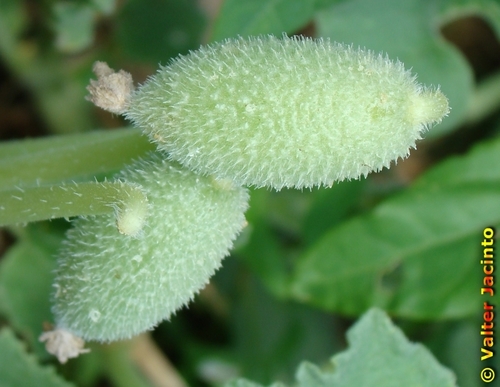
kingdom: Plantae
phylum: Tracheophyta
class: Magnoliopsida
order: Cucurbitales
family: Cucurbitaceae
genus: Ecballium
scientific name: Ecballium elaterium
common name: Squirting cucumber
